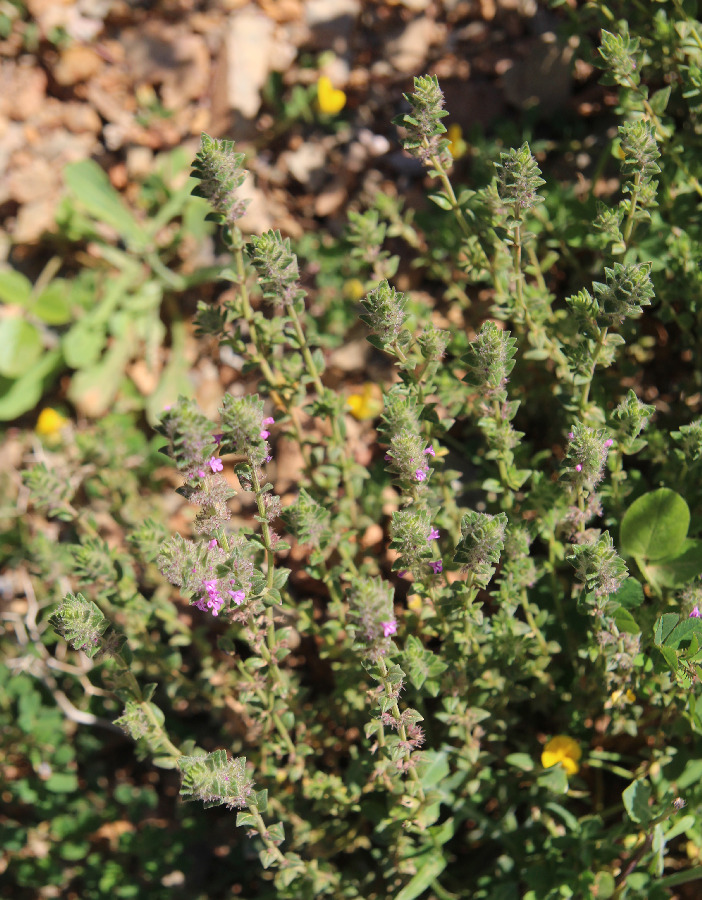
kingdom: Plantae
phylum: Tracheophyta
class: Magnoliopsida
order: Lamiales
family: Lamiaceae
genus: Micromeria
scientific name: Micromeria nervosa
